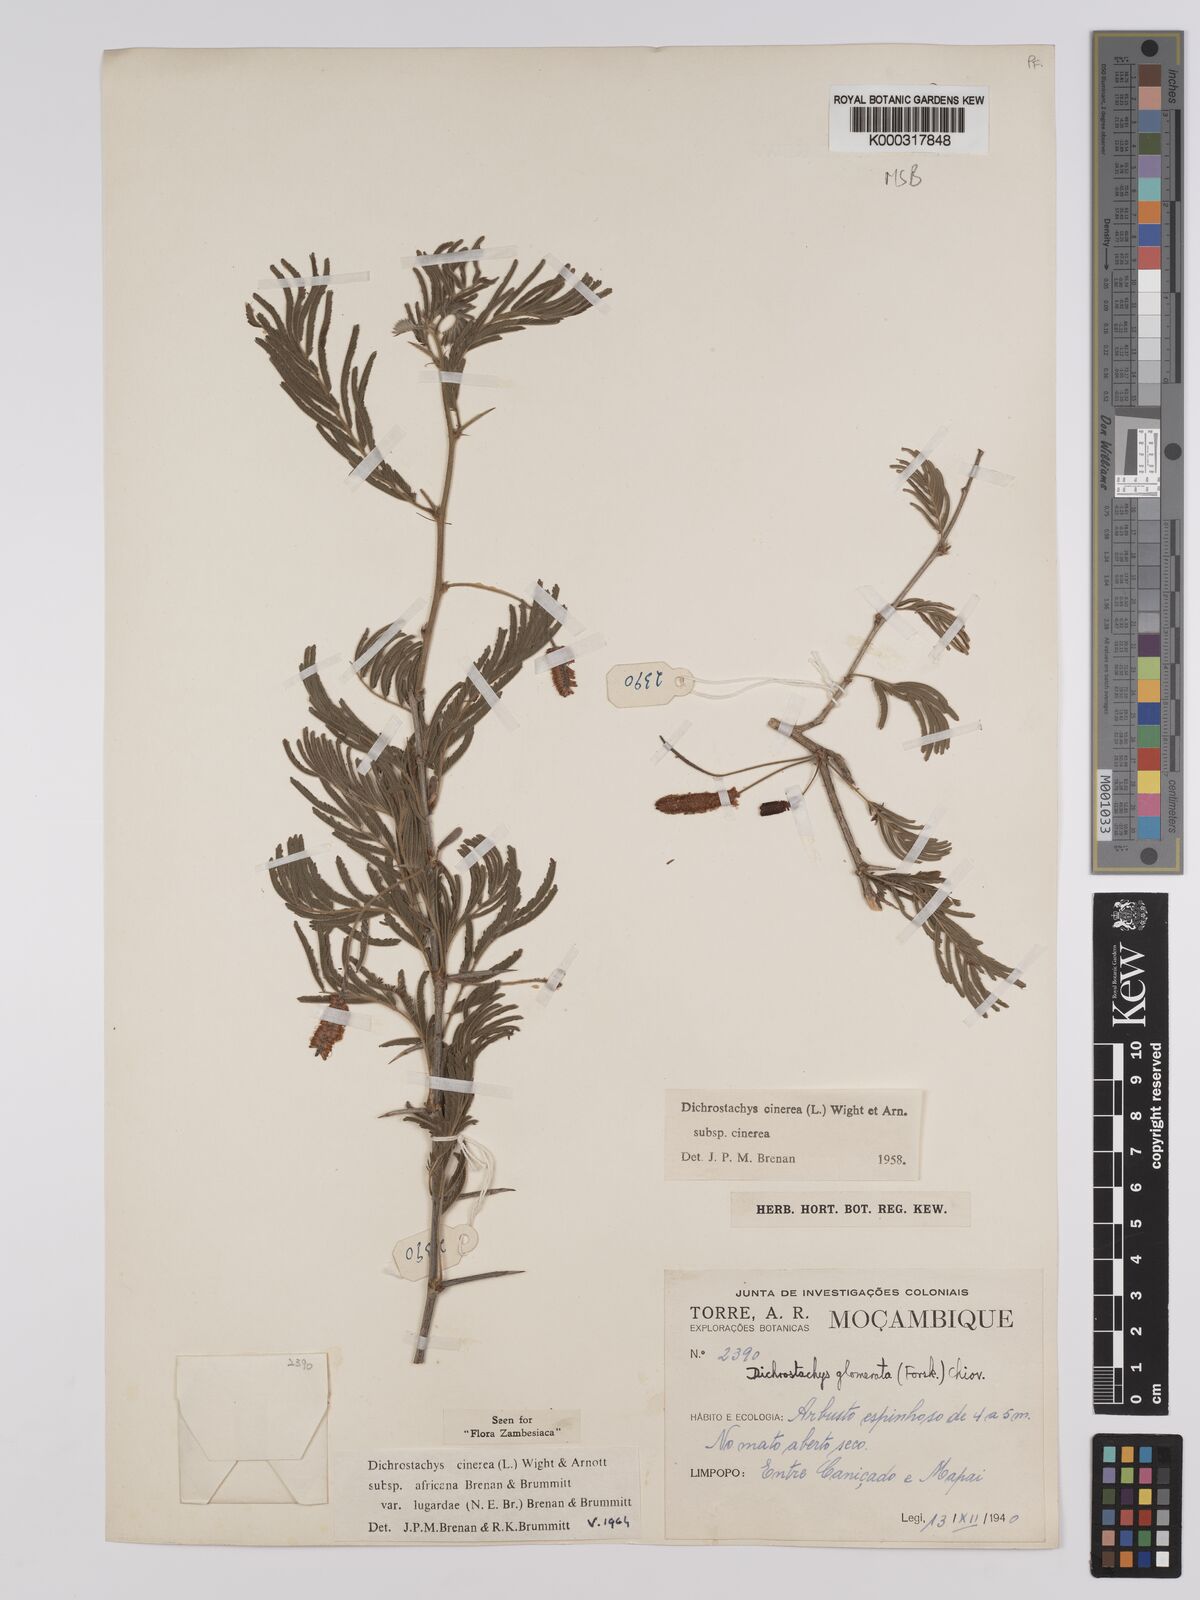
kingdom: Plantae
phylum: Tracheophyta
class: Magnoliopsida
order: Fabales
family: Fabaceae
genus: Dichrostachys
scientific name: Dichrostachys cinerea
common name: Sicklebush
